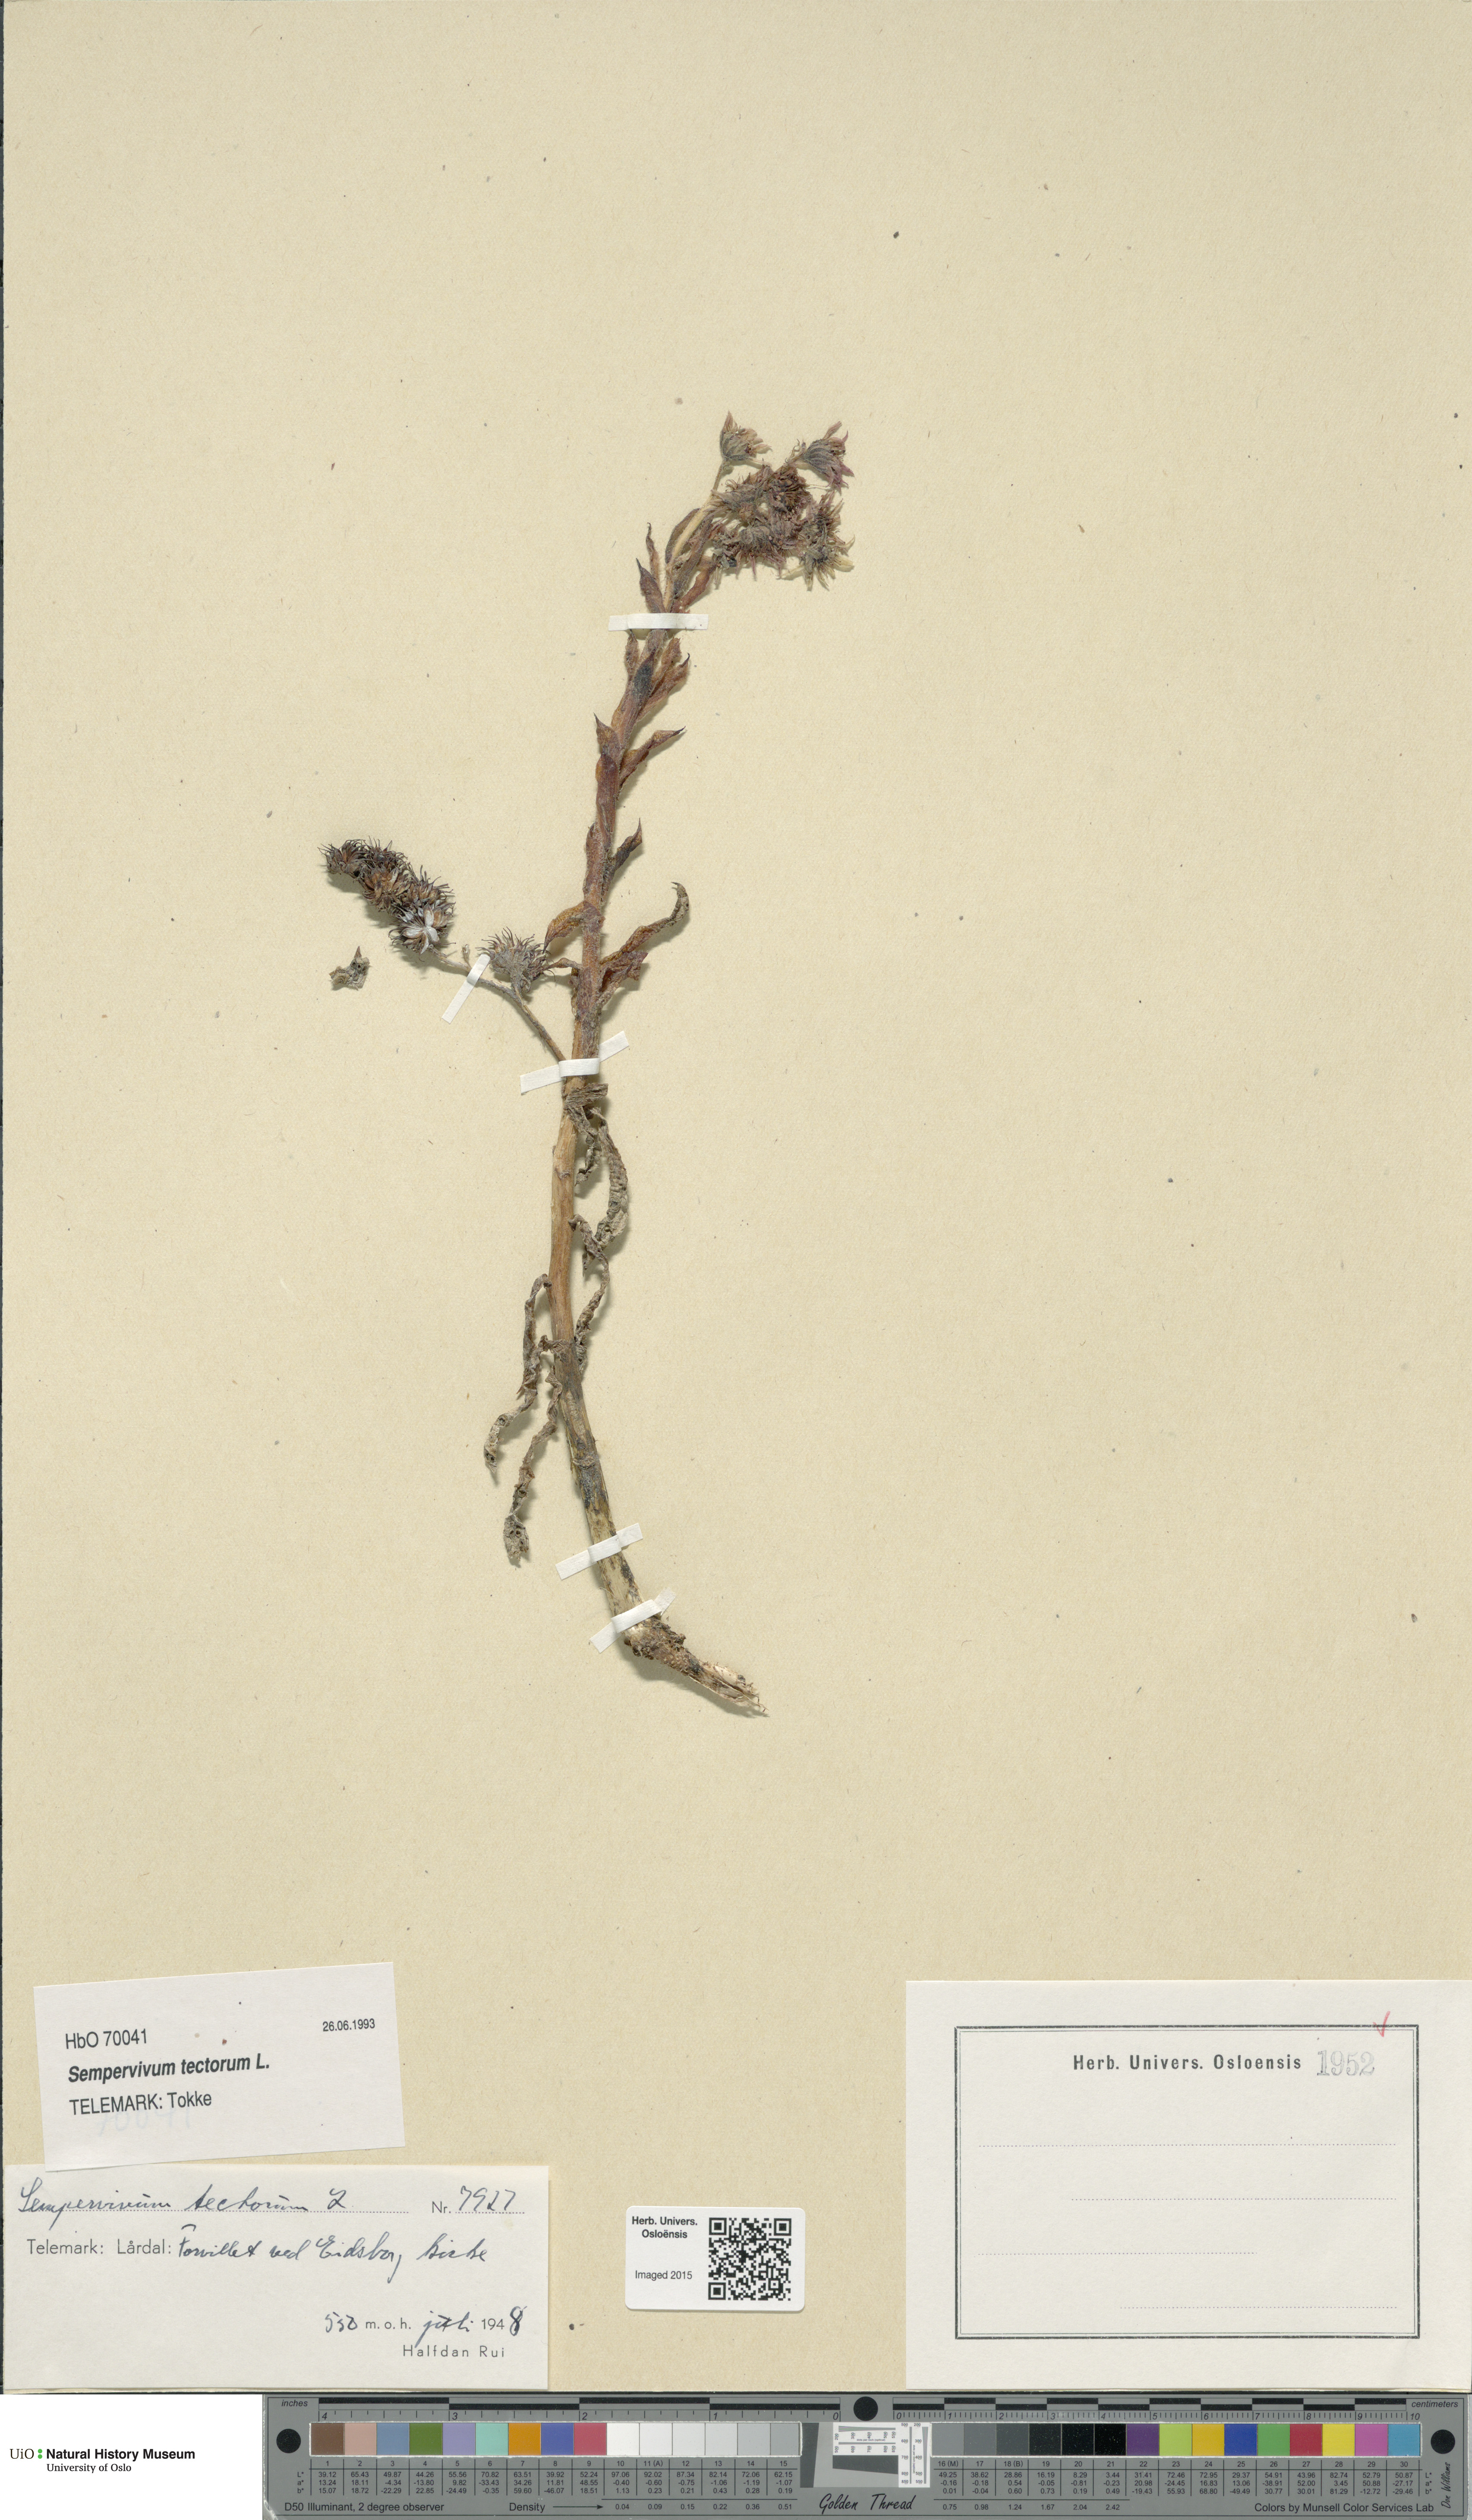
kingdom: Plantae
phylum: Tracheophyta
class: Magnoliopsida
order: Saxifragales
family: Crassulaceae
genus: Sempervivum
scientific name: Sempervivum tectorum
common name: House-leek
